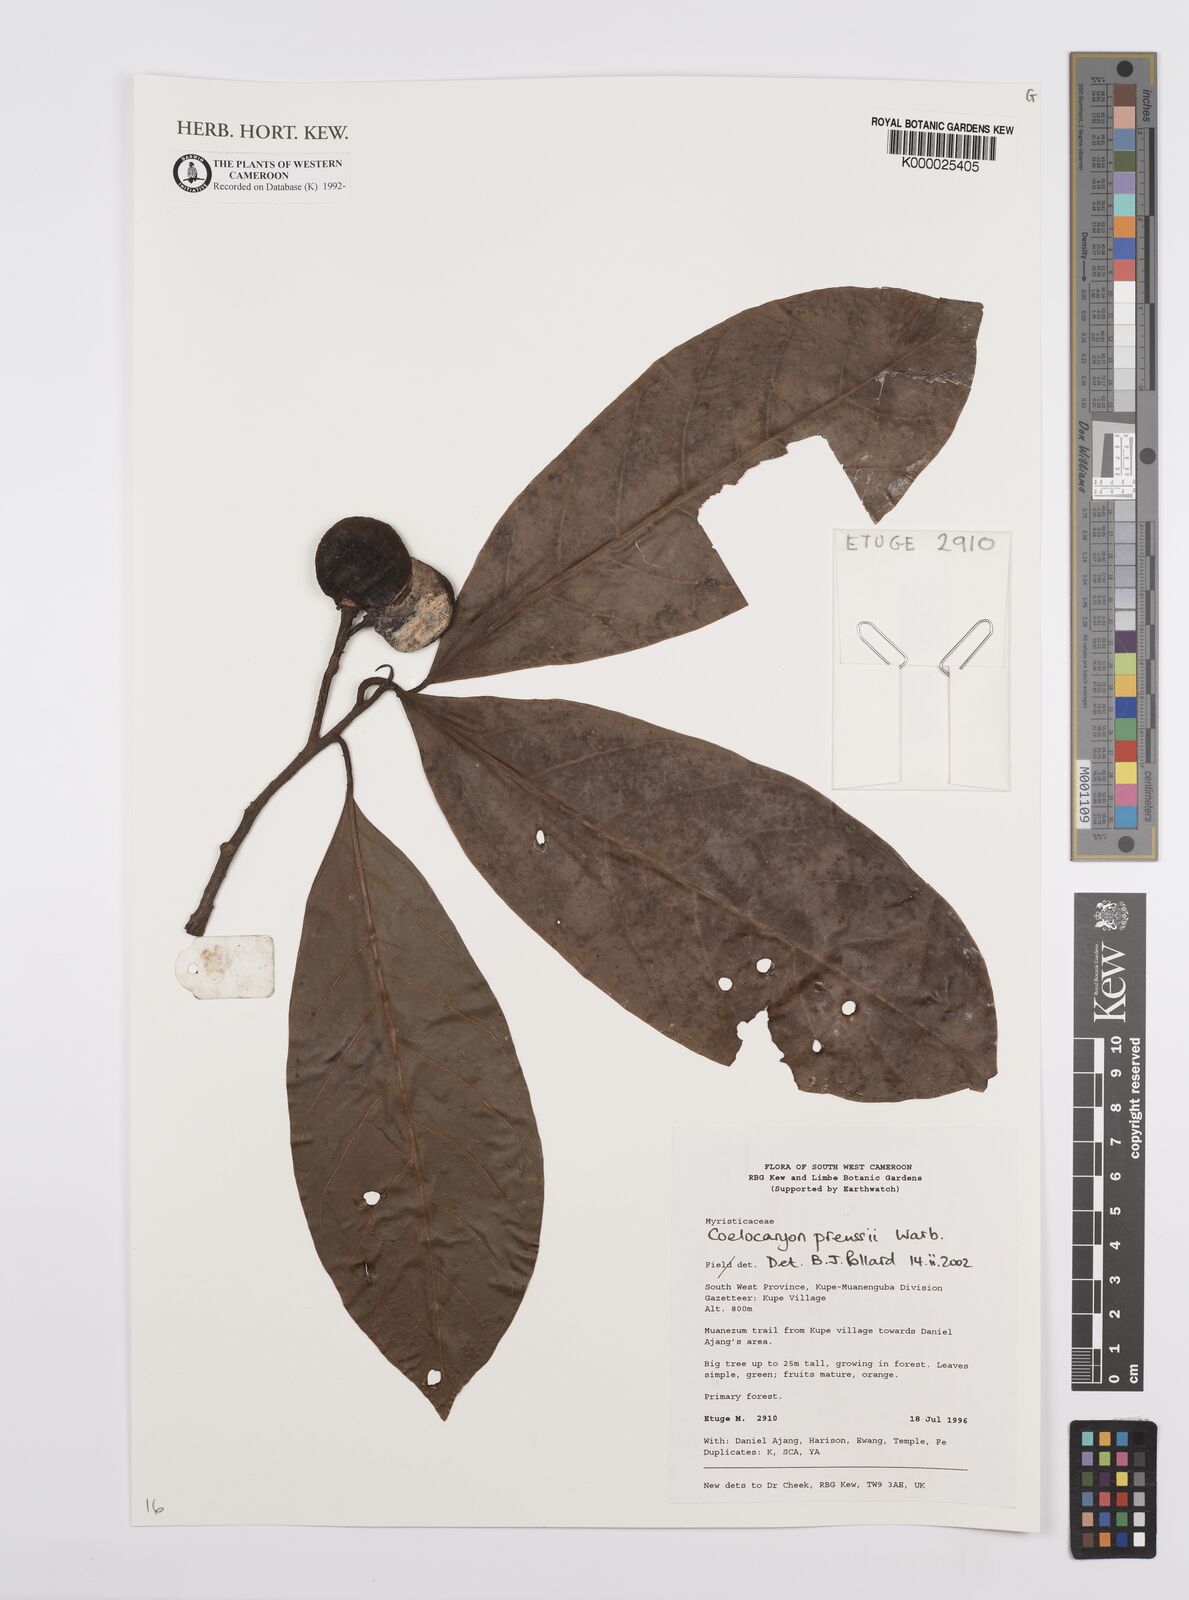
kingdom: Plantae
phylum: Tracheophyta
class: Magnoliopsida
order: Magnoliales
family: Myristicaceae
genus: Coelocaryon
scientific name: Coelocaryon preussii
